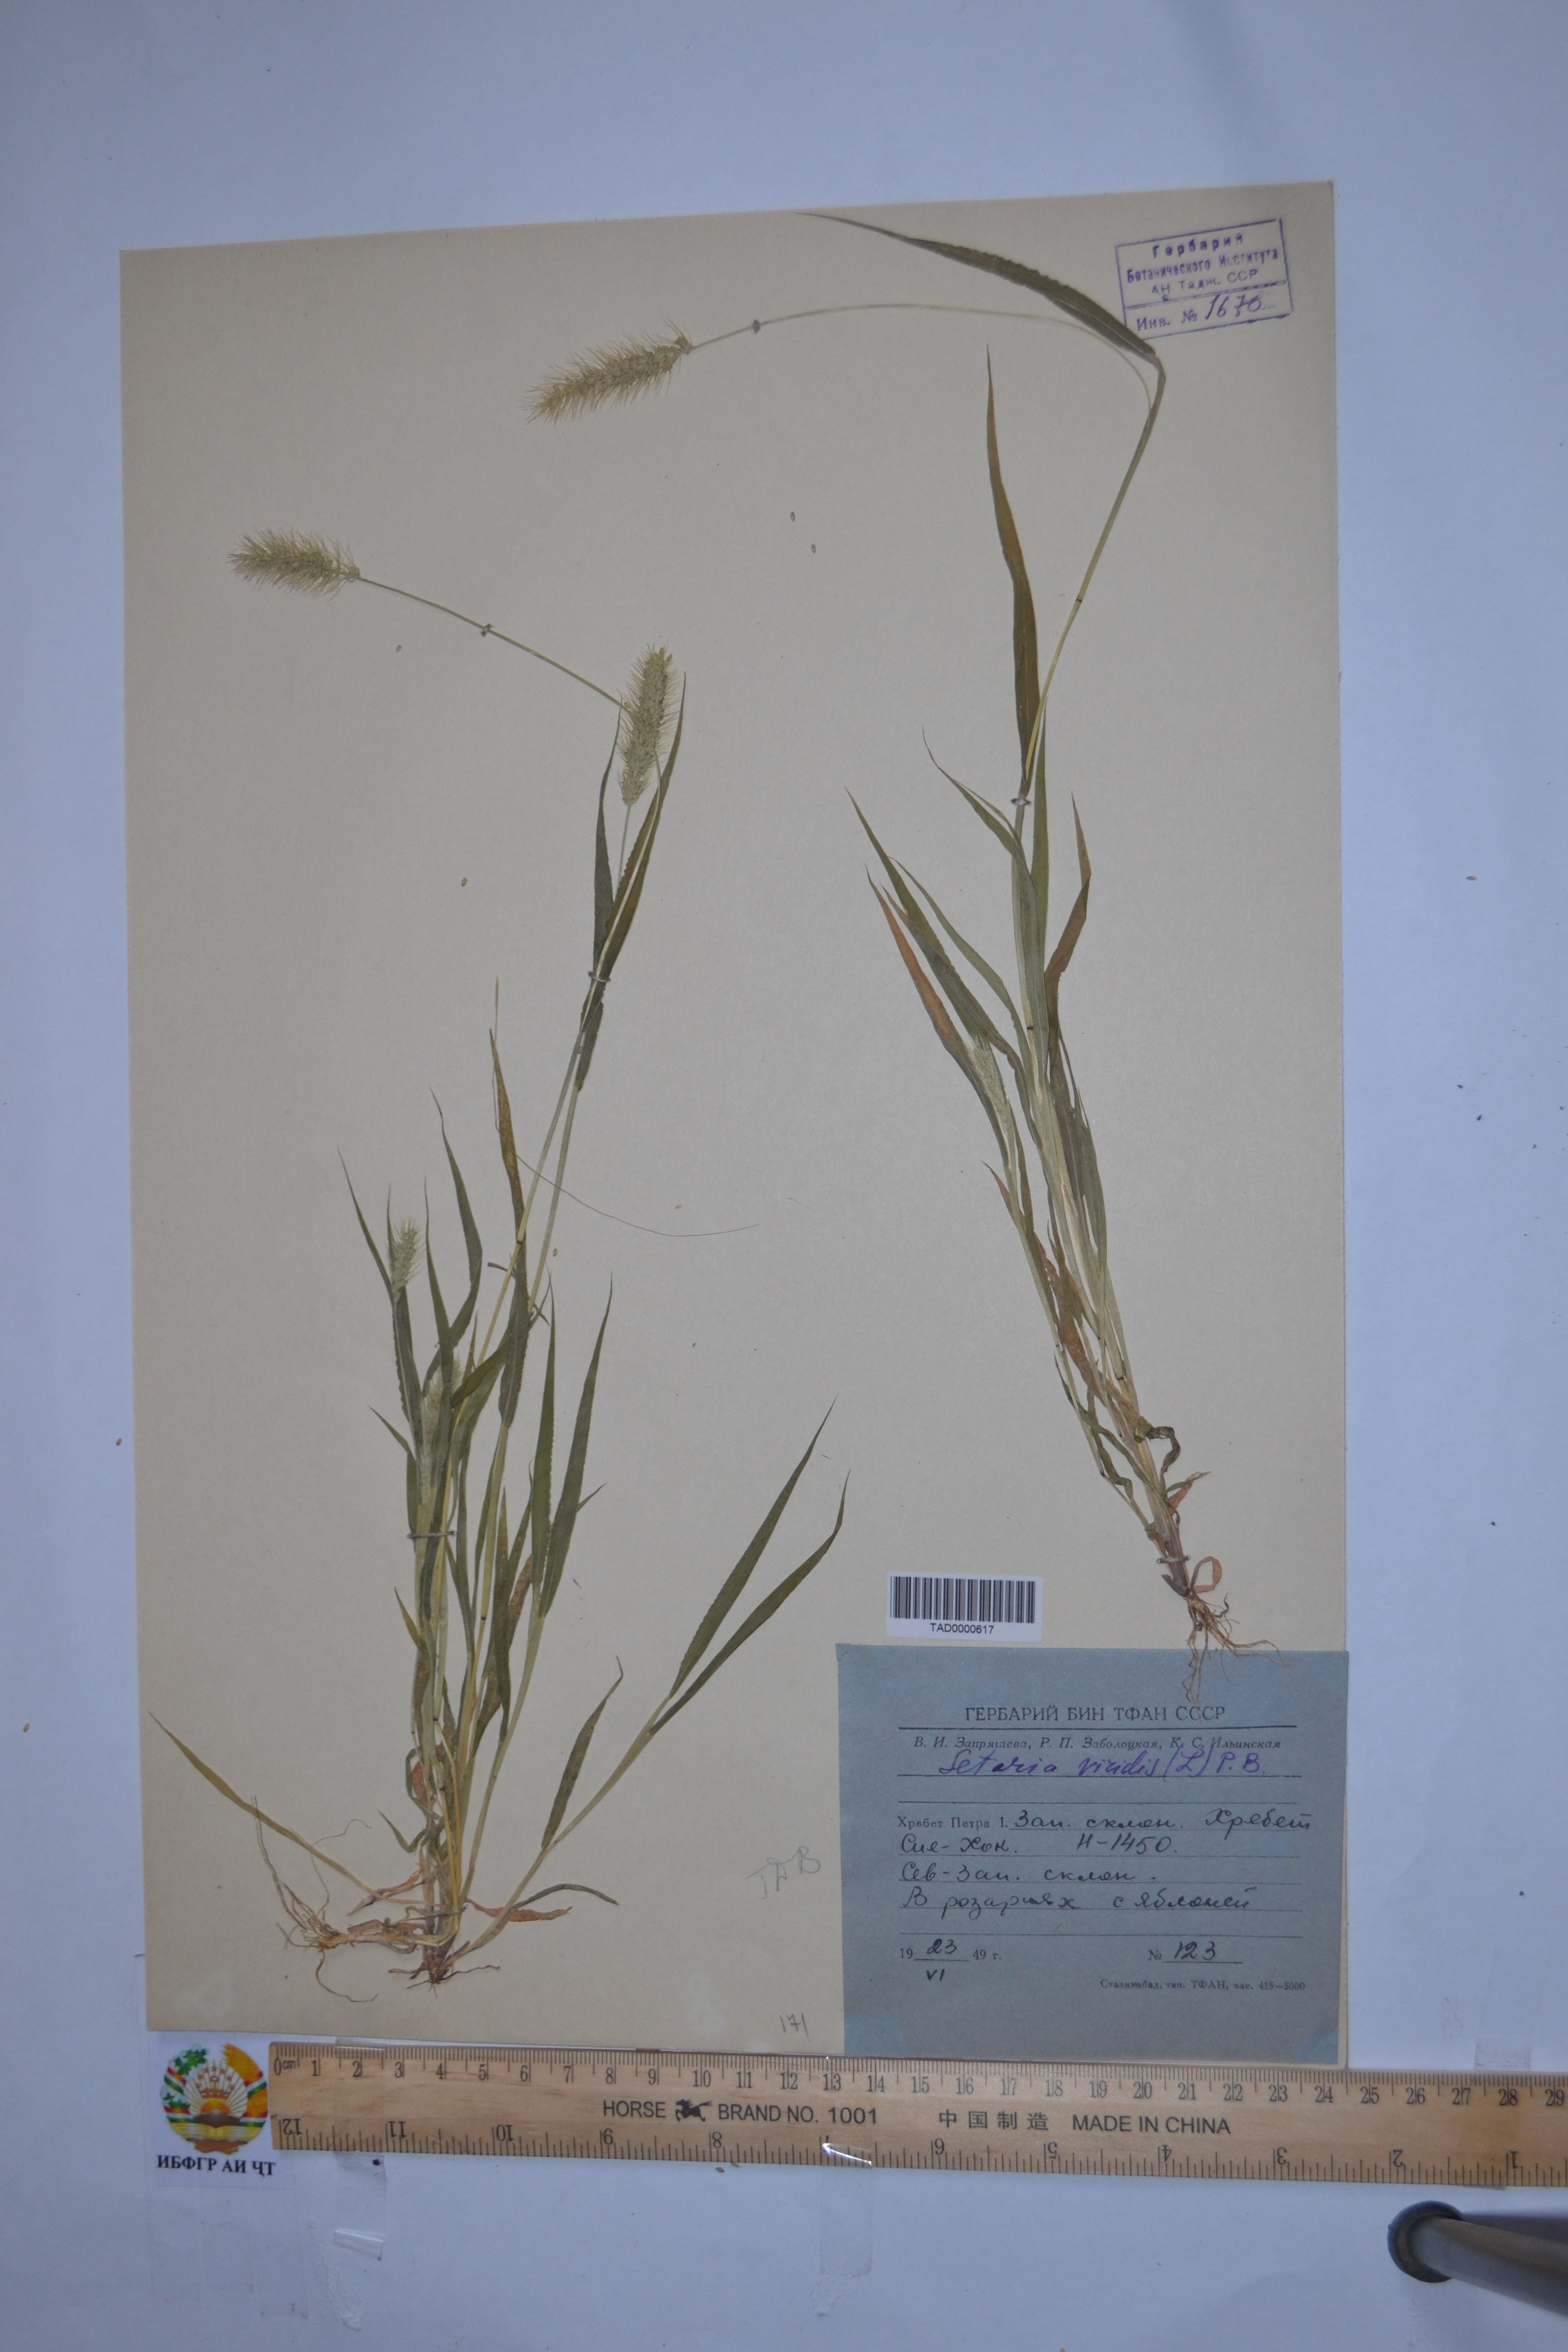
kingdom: Plantae
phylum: Tracheophyta
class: Liliopsida
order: Poales
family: Poaceae
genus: Setaria
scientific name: Setaria viridis
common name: Green bristlegrass
